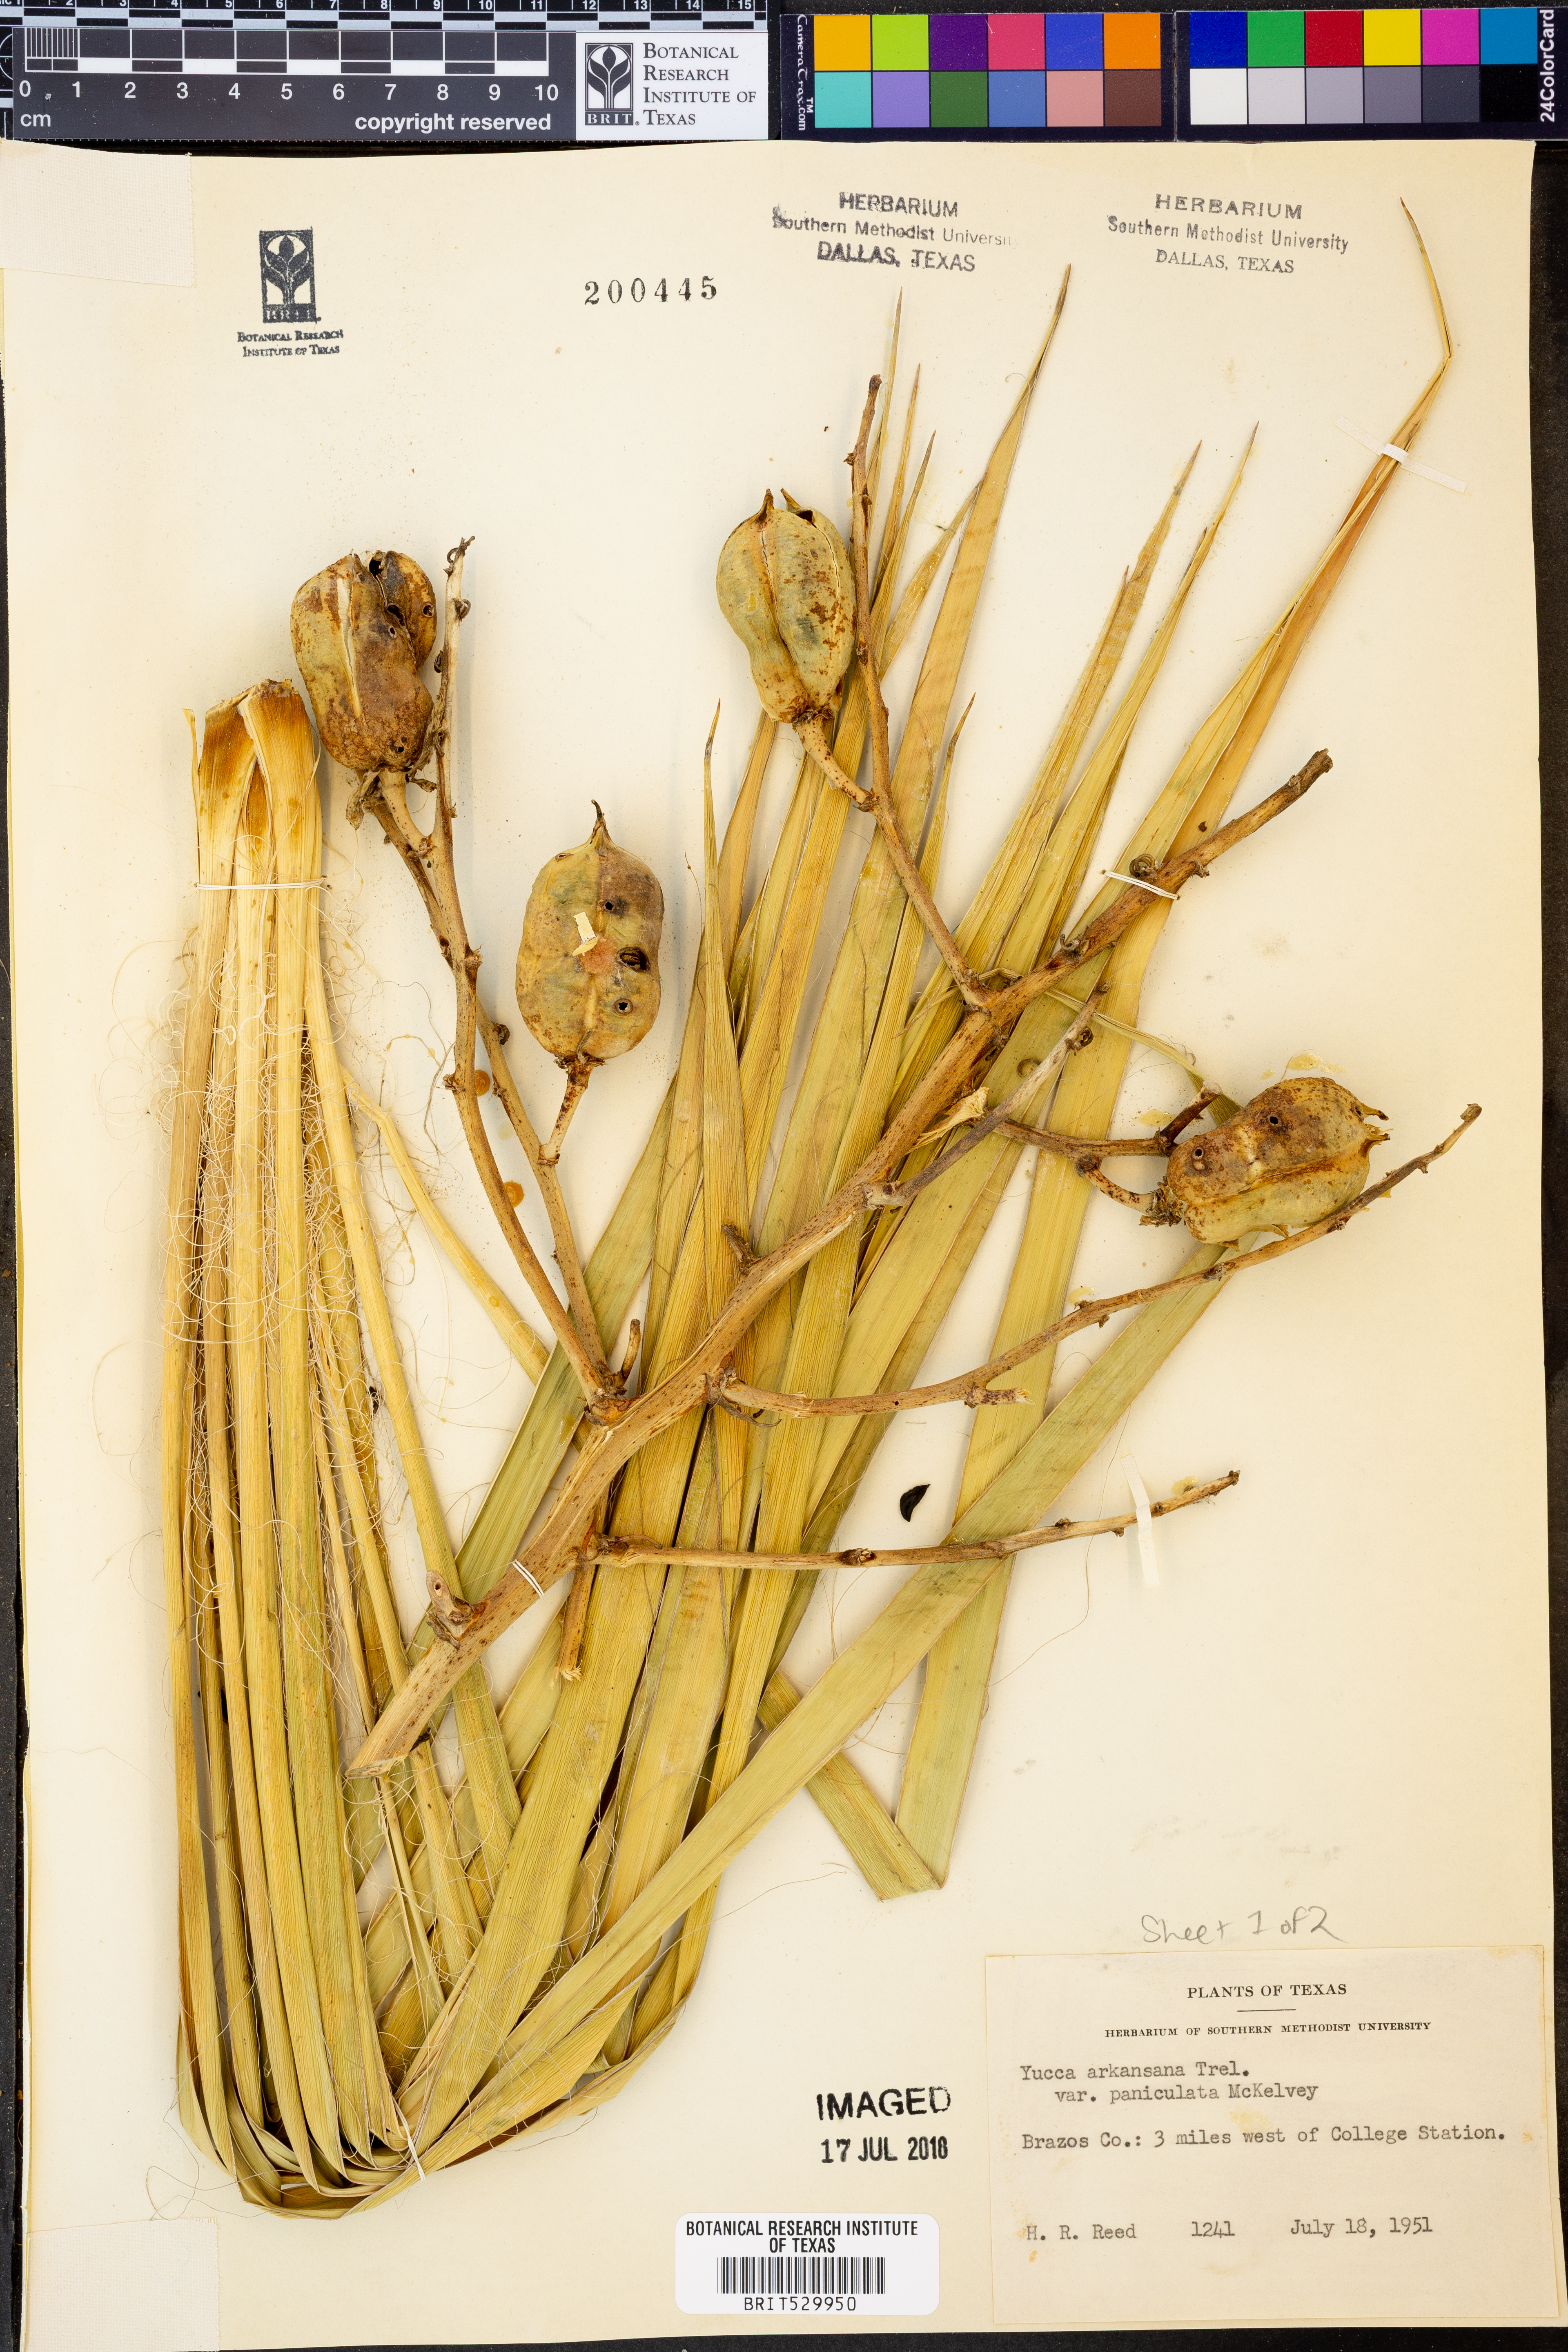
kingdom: Plantae
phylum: Tracheophyta
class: Liliopsida
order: Asparagales
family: Asparagaceae
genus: Yucca
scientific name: Yucca arkansana
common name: Arkansas yucca
